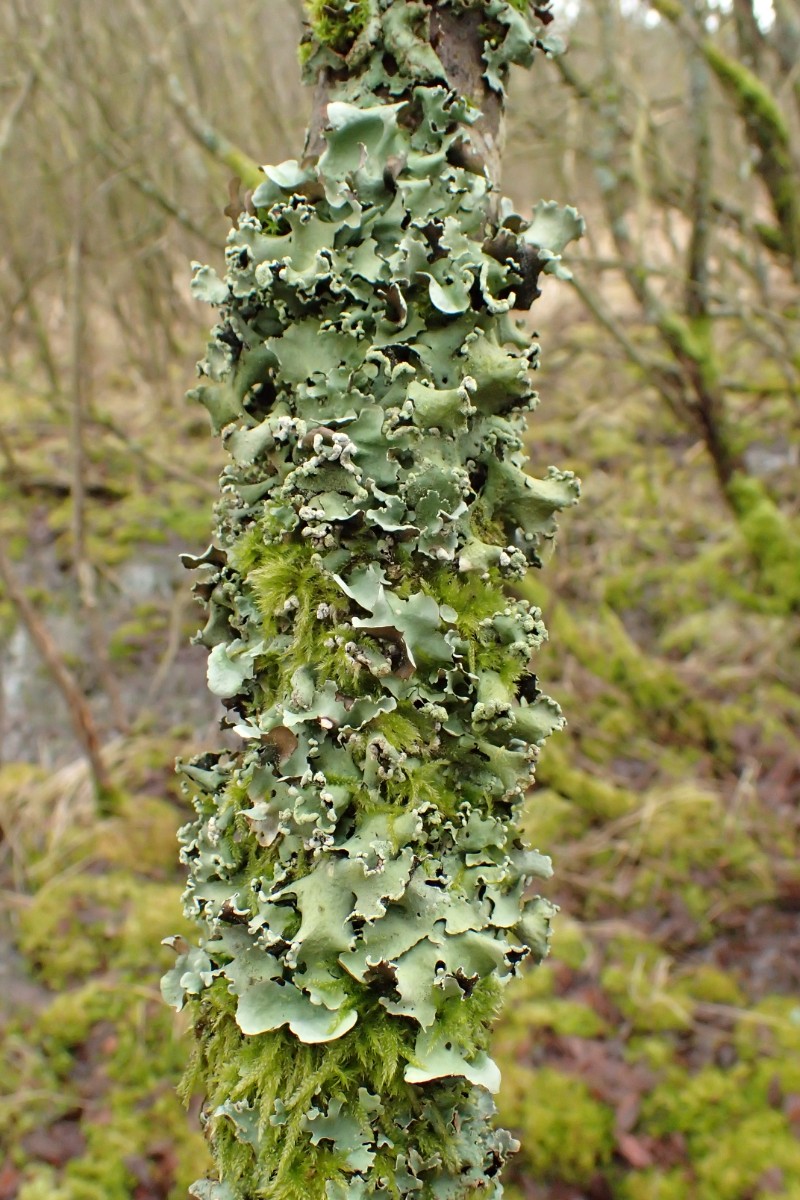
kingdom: Fungi
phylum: Ascomycota
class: Lecanoromycetes
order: Lecanorales
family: Parmeliaceae
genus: Parmotrema
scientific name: Parmotrema perlatum
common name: trådet skållav
